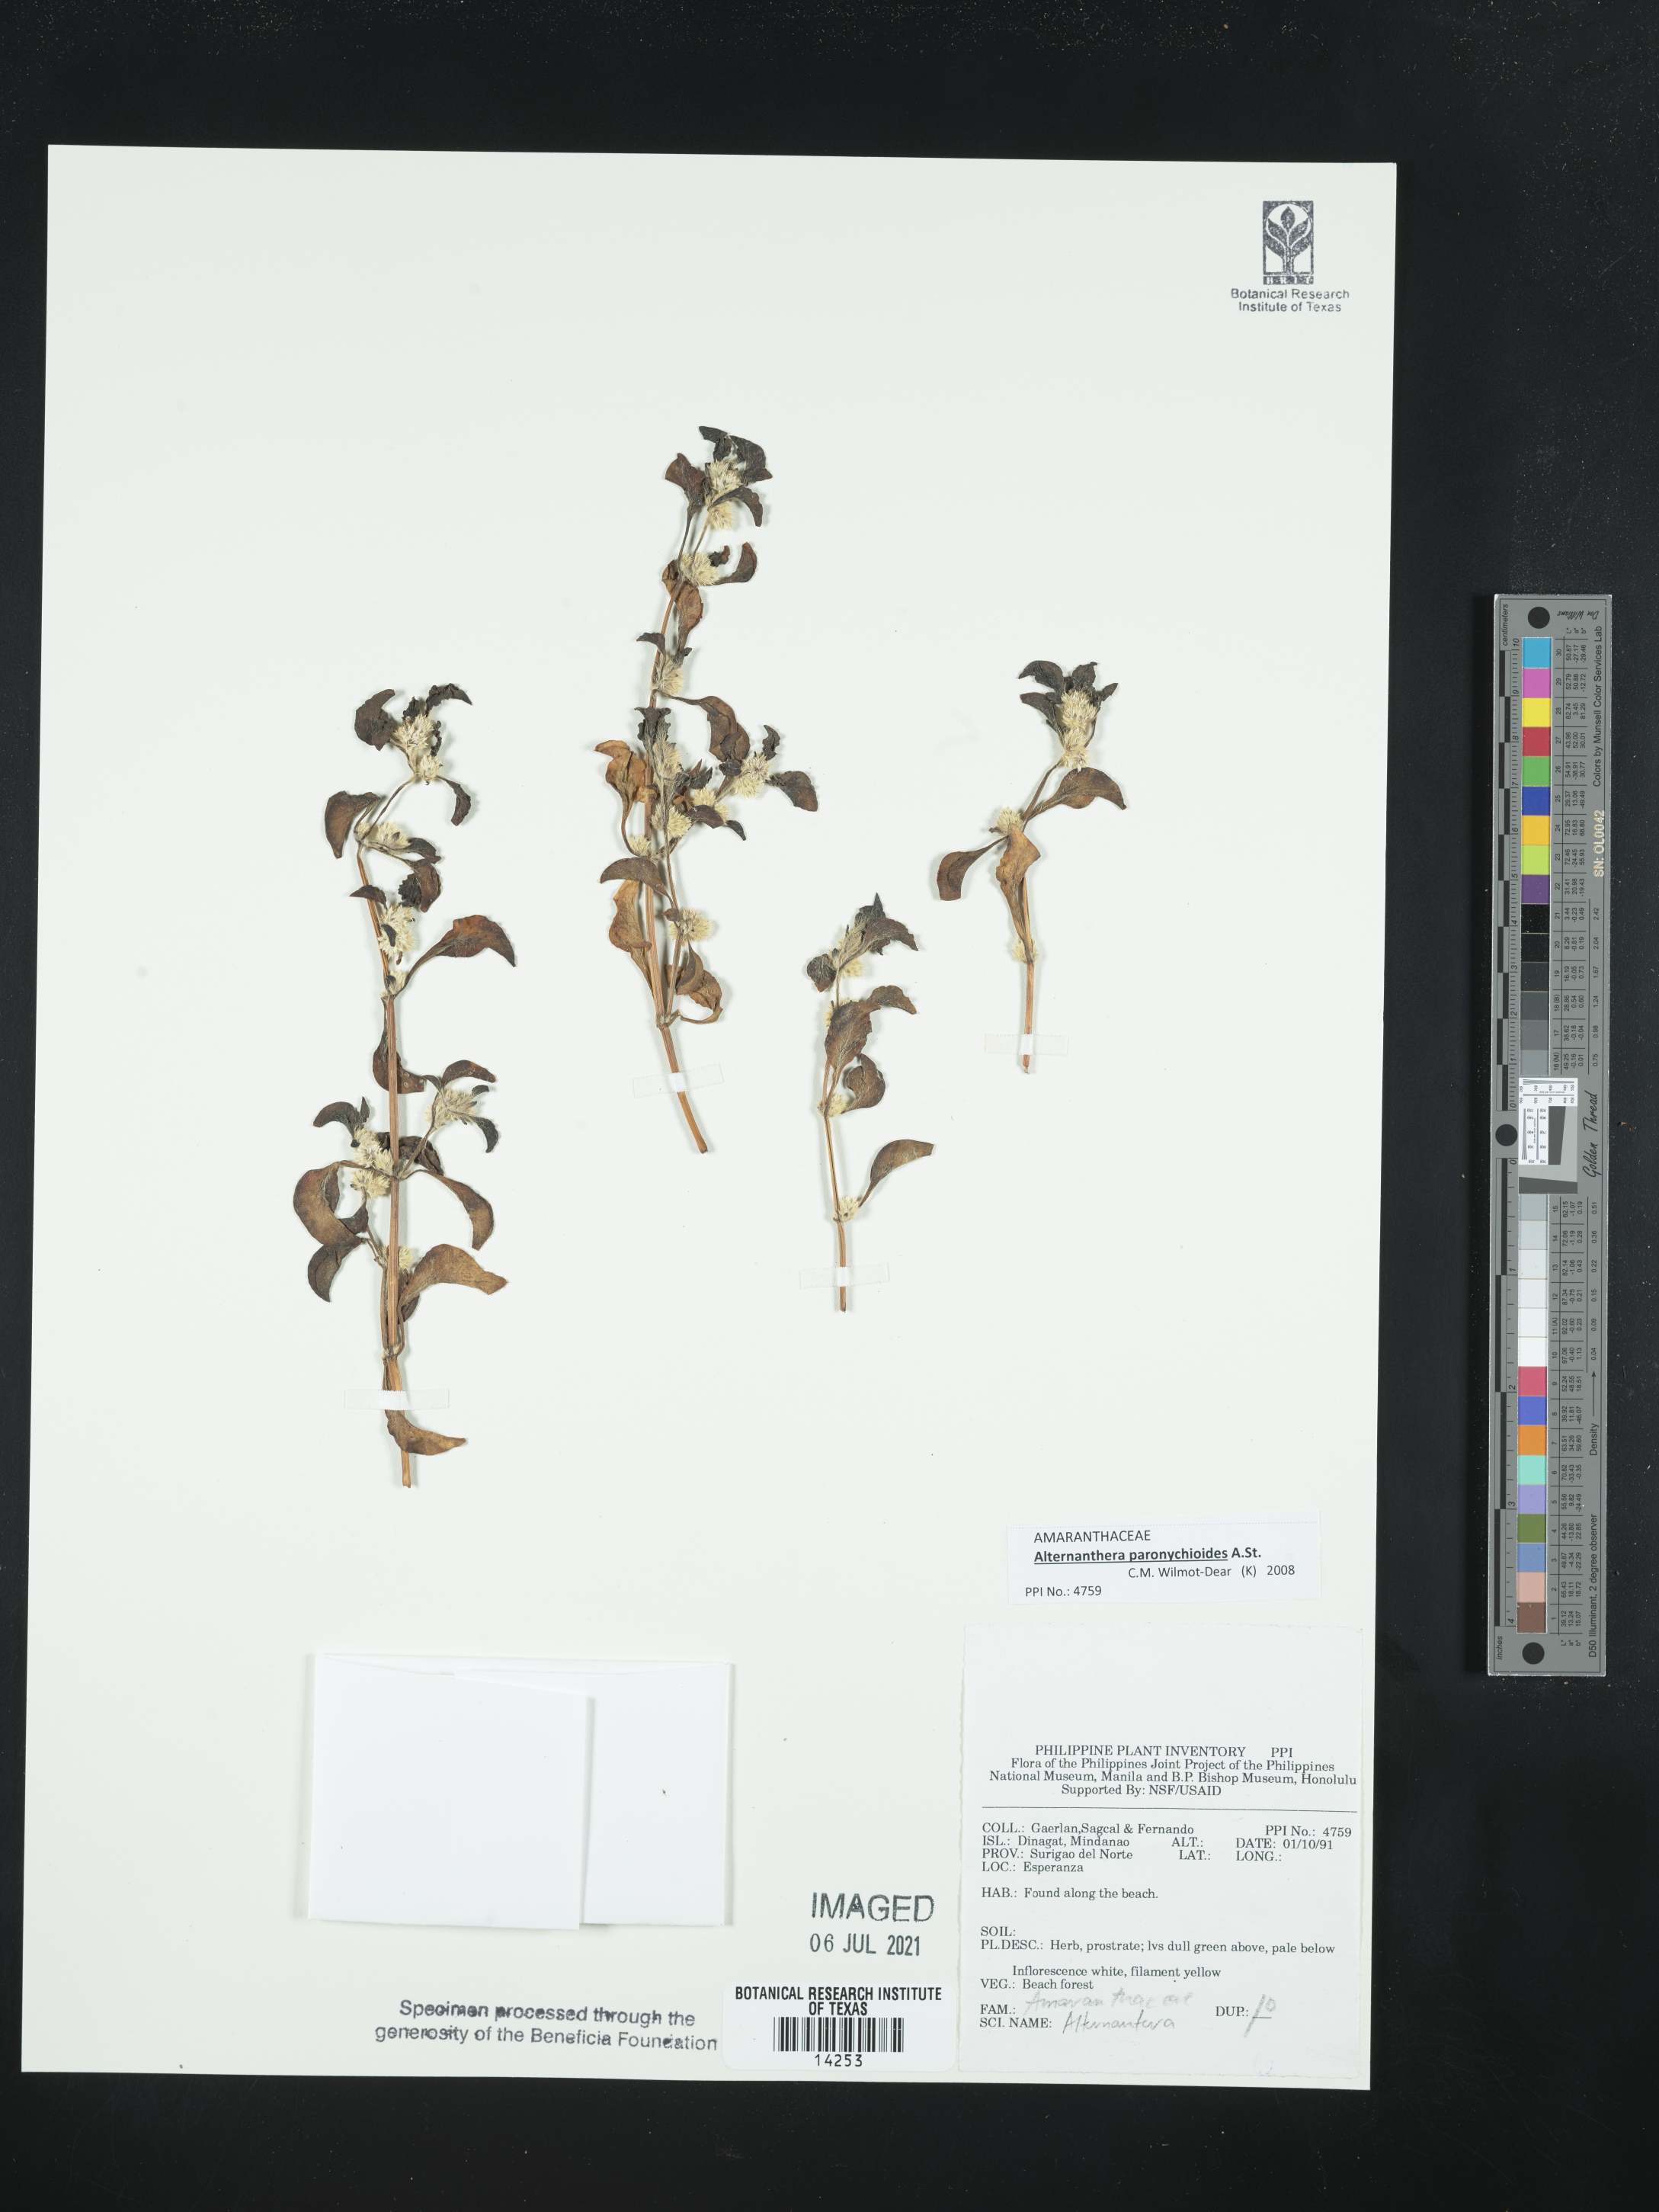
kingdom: Plantae
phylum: Tracheophyta
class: Magnoliopsida
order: Caryophyllales
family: Amaranthaceae
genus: Alternanthera
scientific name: Alternanthera
